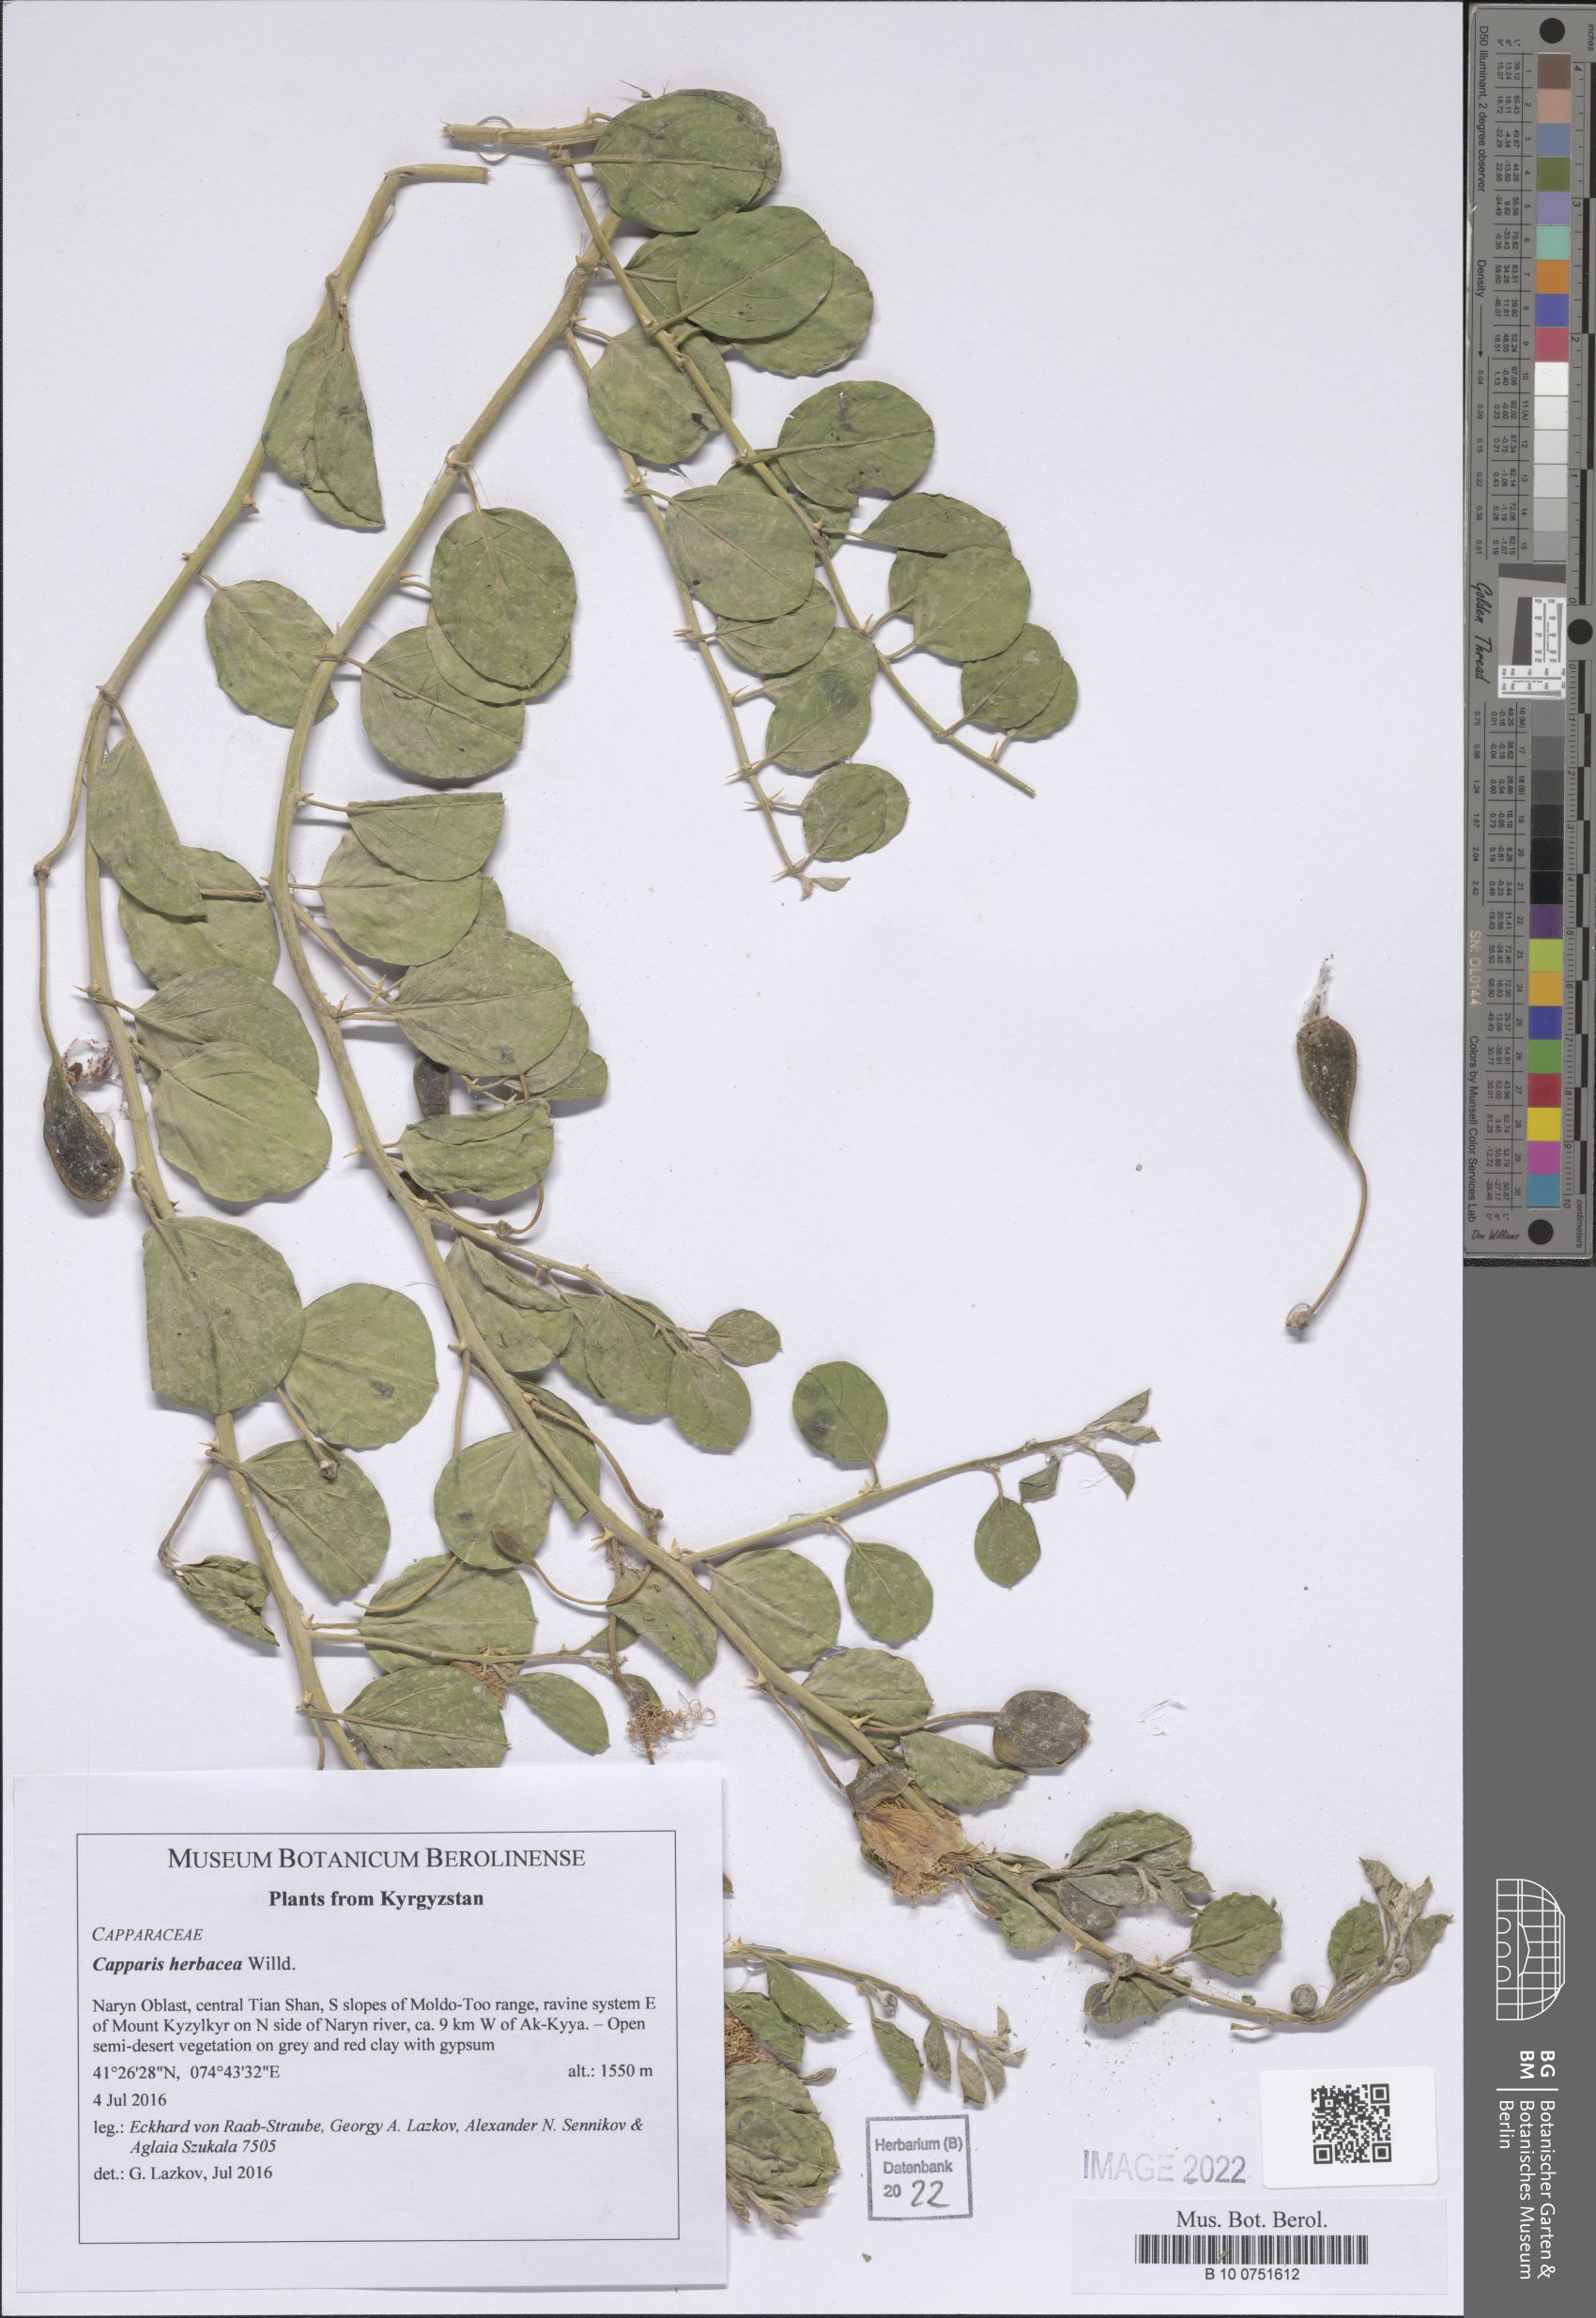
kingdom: Plantae
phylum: Tracheophyta
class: Magnoliopsida
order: Brassicales
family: Capparaceae
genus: Capparis
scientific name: Capparis spinosa
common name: Caper
